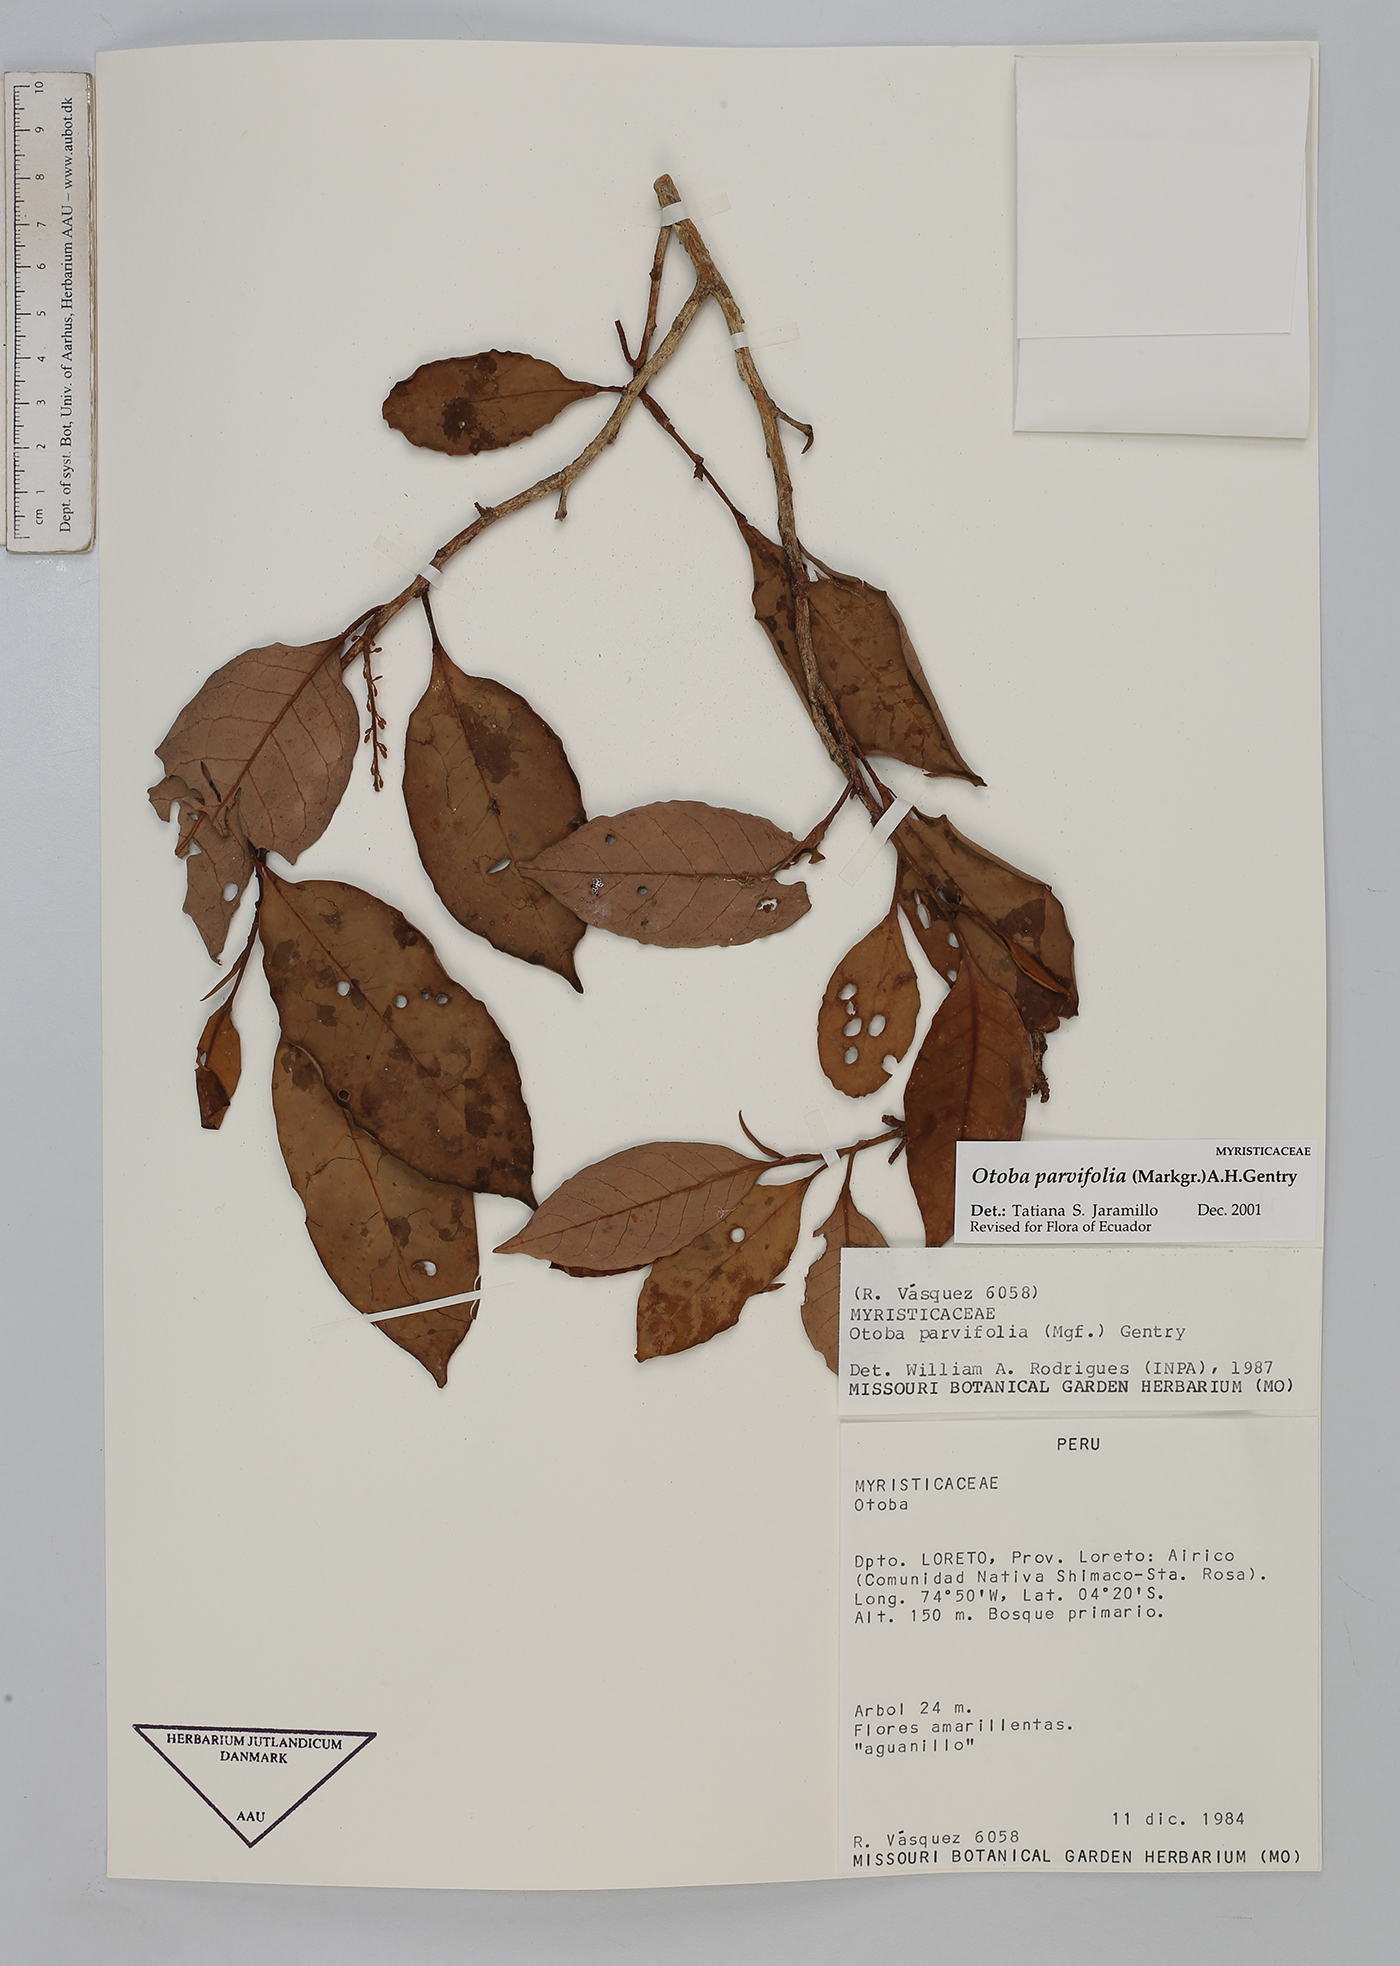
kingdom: Plantae
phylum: Tracheophyta
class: Magnoliopsida
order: Magnoliales
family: Myristicaceae
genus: Otoba
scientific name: Otoba parvifolia
